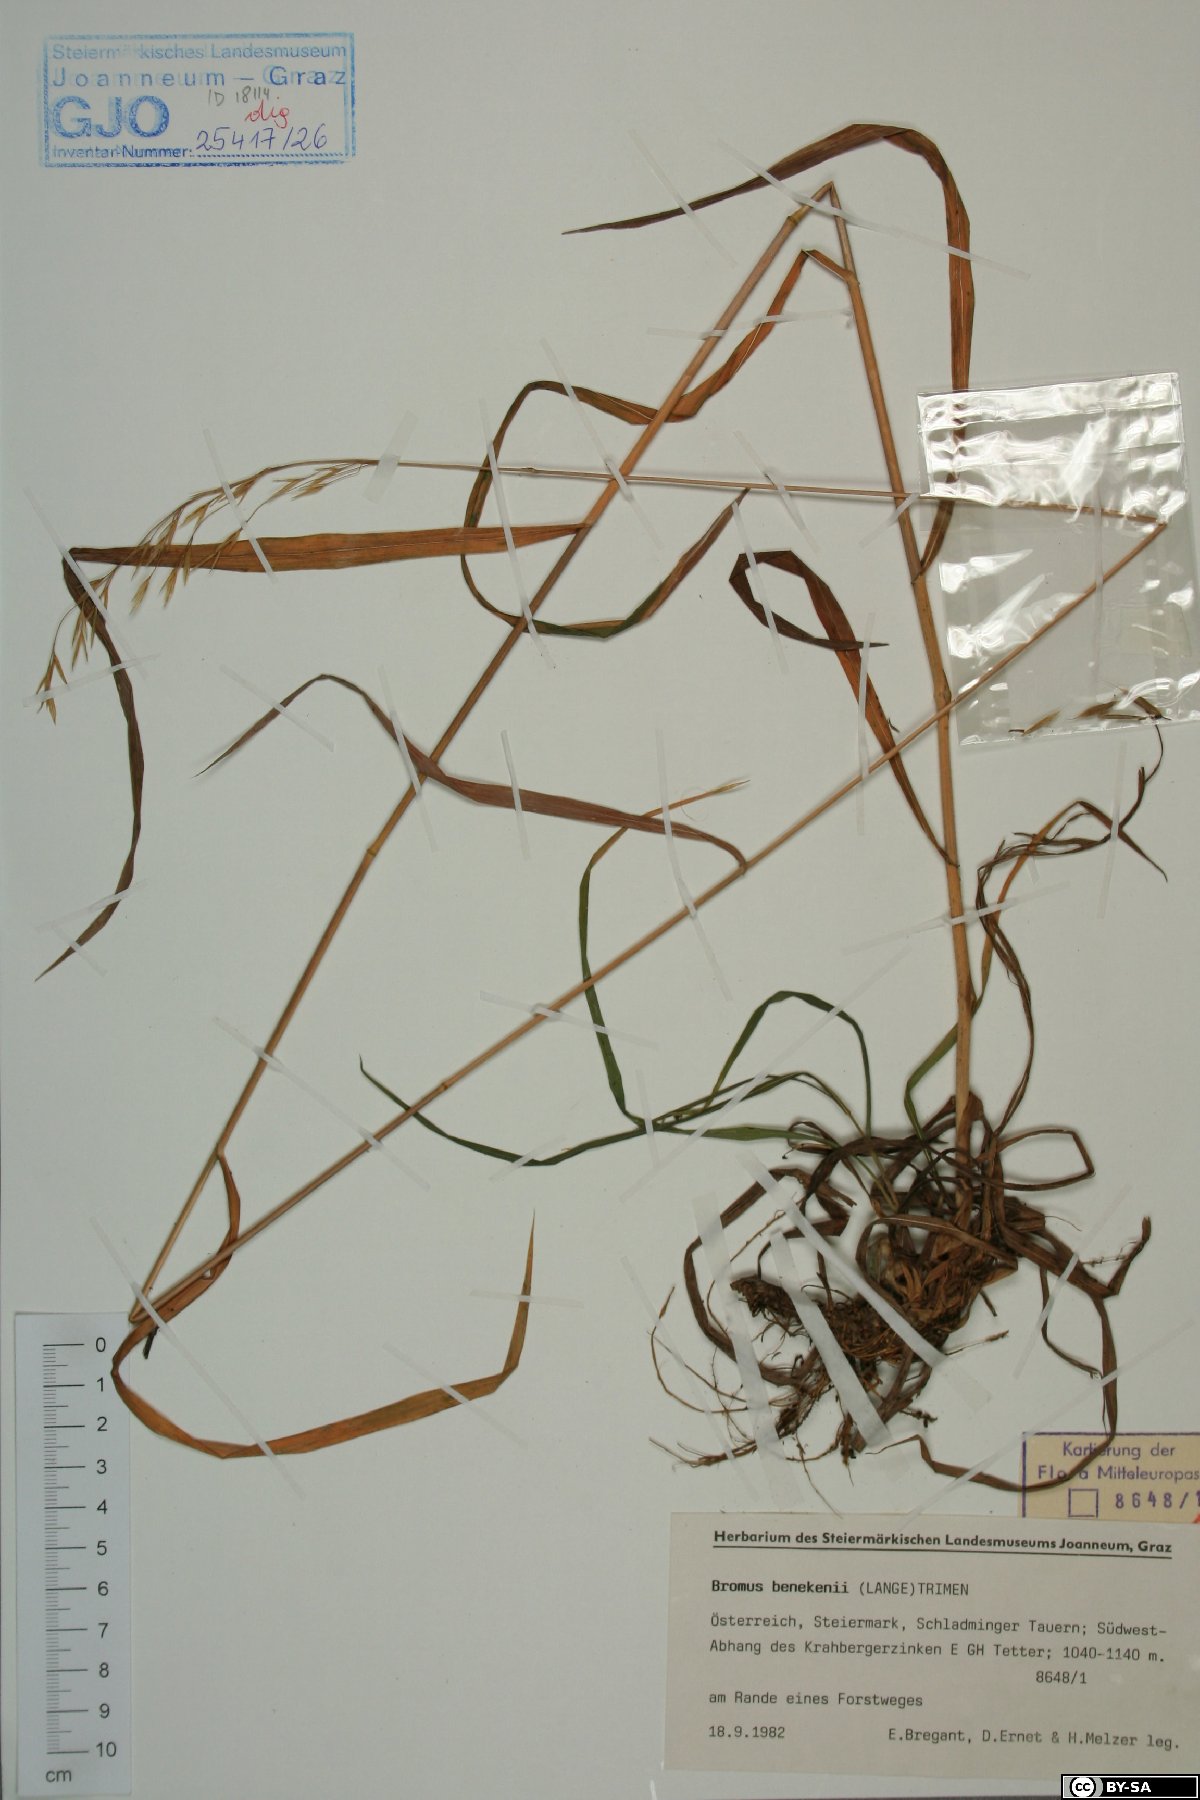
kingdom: Plantae
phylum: Tracheophyta
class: Liliopsida
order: Poales
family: Poaceae
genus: Bromus
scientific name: Bromus benekenii
